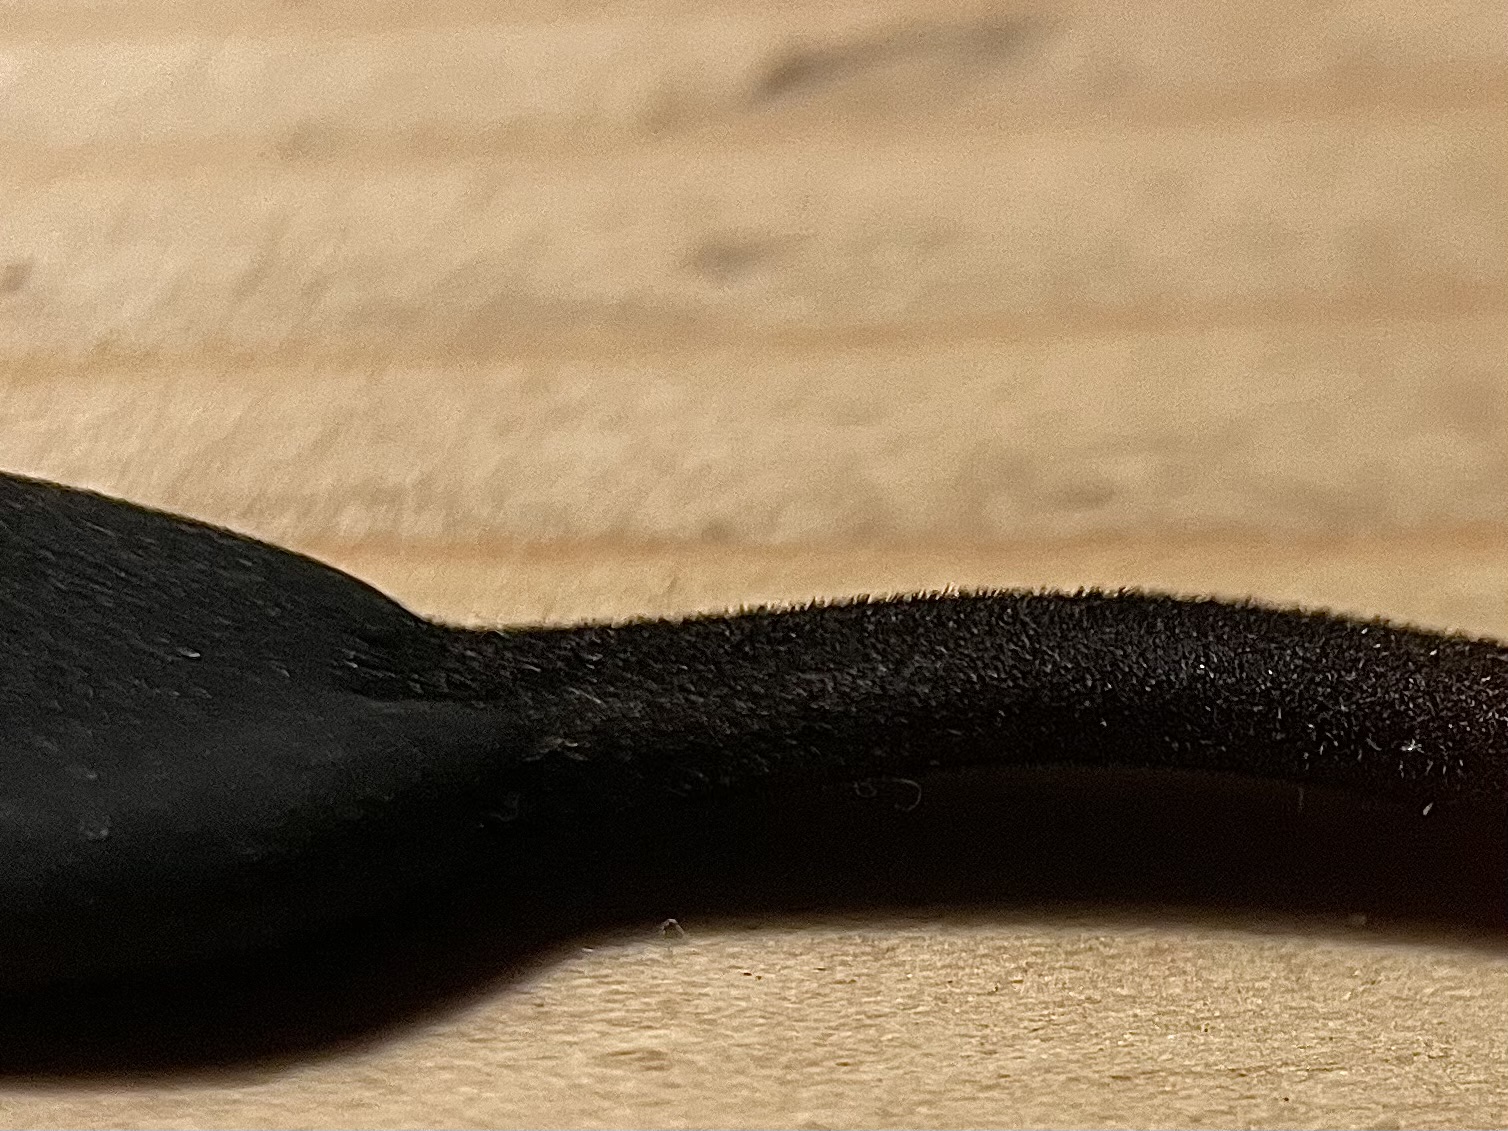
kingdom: Fungi
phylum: Ascomycota
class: Geoglossomycetes
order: Geoglossales
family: Geoglossaceae
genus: Trichoglossum
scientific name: Trichoglossum hirsutum
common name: håret jordtunge
